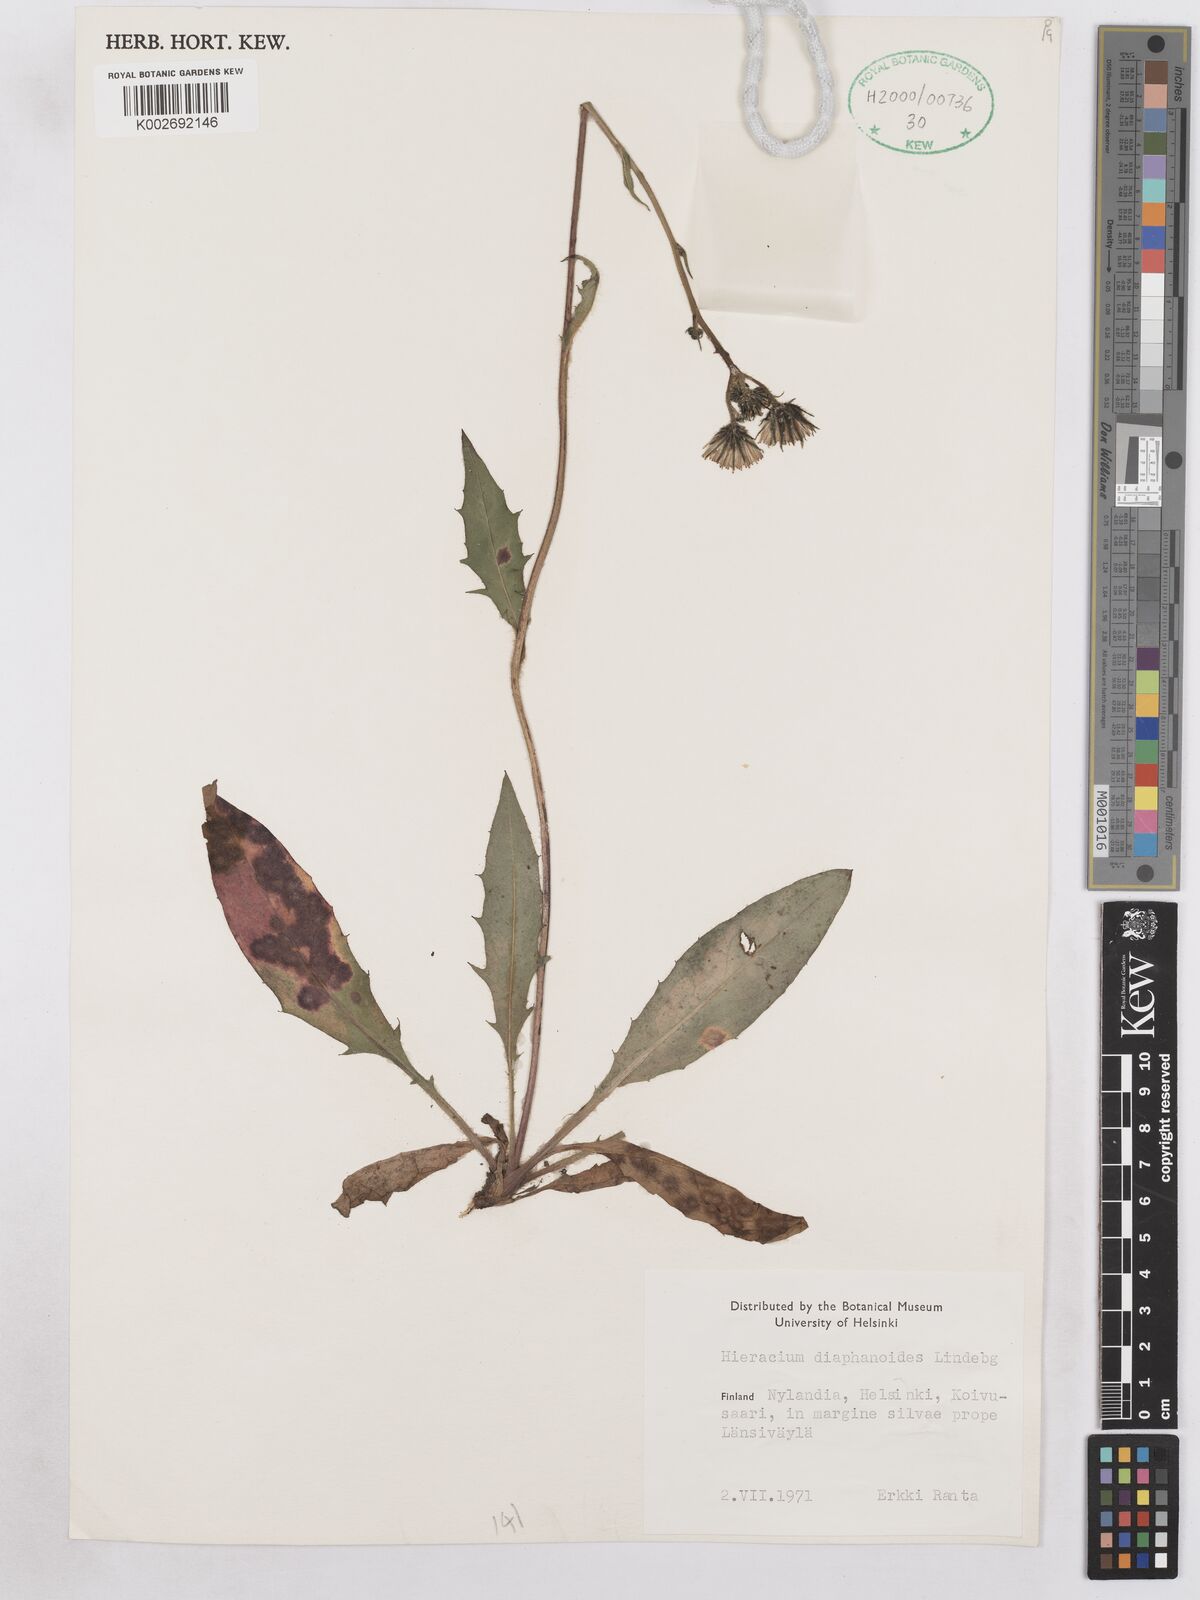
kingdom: Plantae
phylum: Tracheophyta
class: Magnoliopsida
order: Asterales
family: Asteraceae
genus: Hieracium
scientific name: Hieracium diaphanoides
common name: Fine-bracted hawkweed
